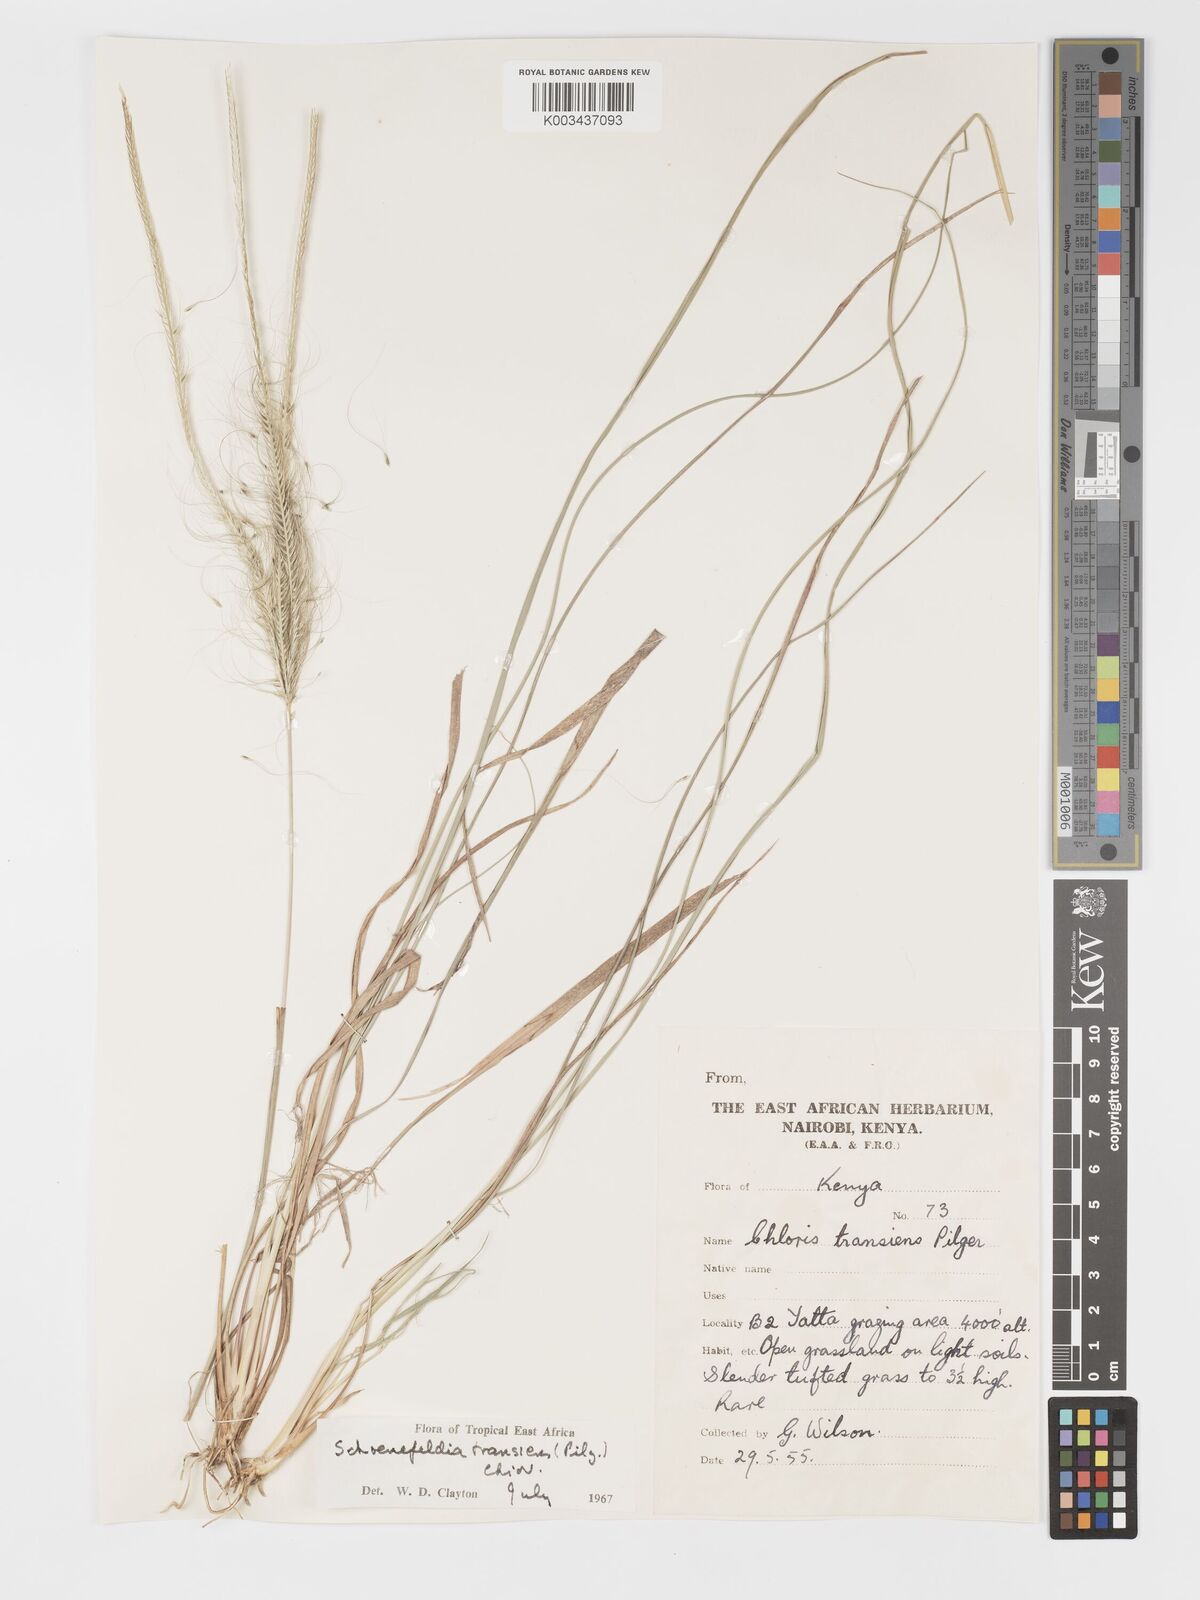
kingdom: Plantae
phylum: Tracheophyta
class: Liliopsida
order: Poales
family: Poaceae
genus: Schoenefeldia
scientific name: Schoenefeldia transiens
